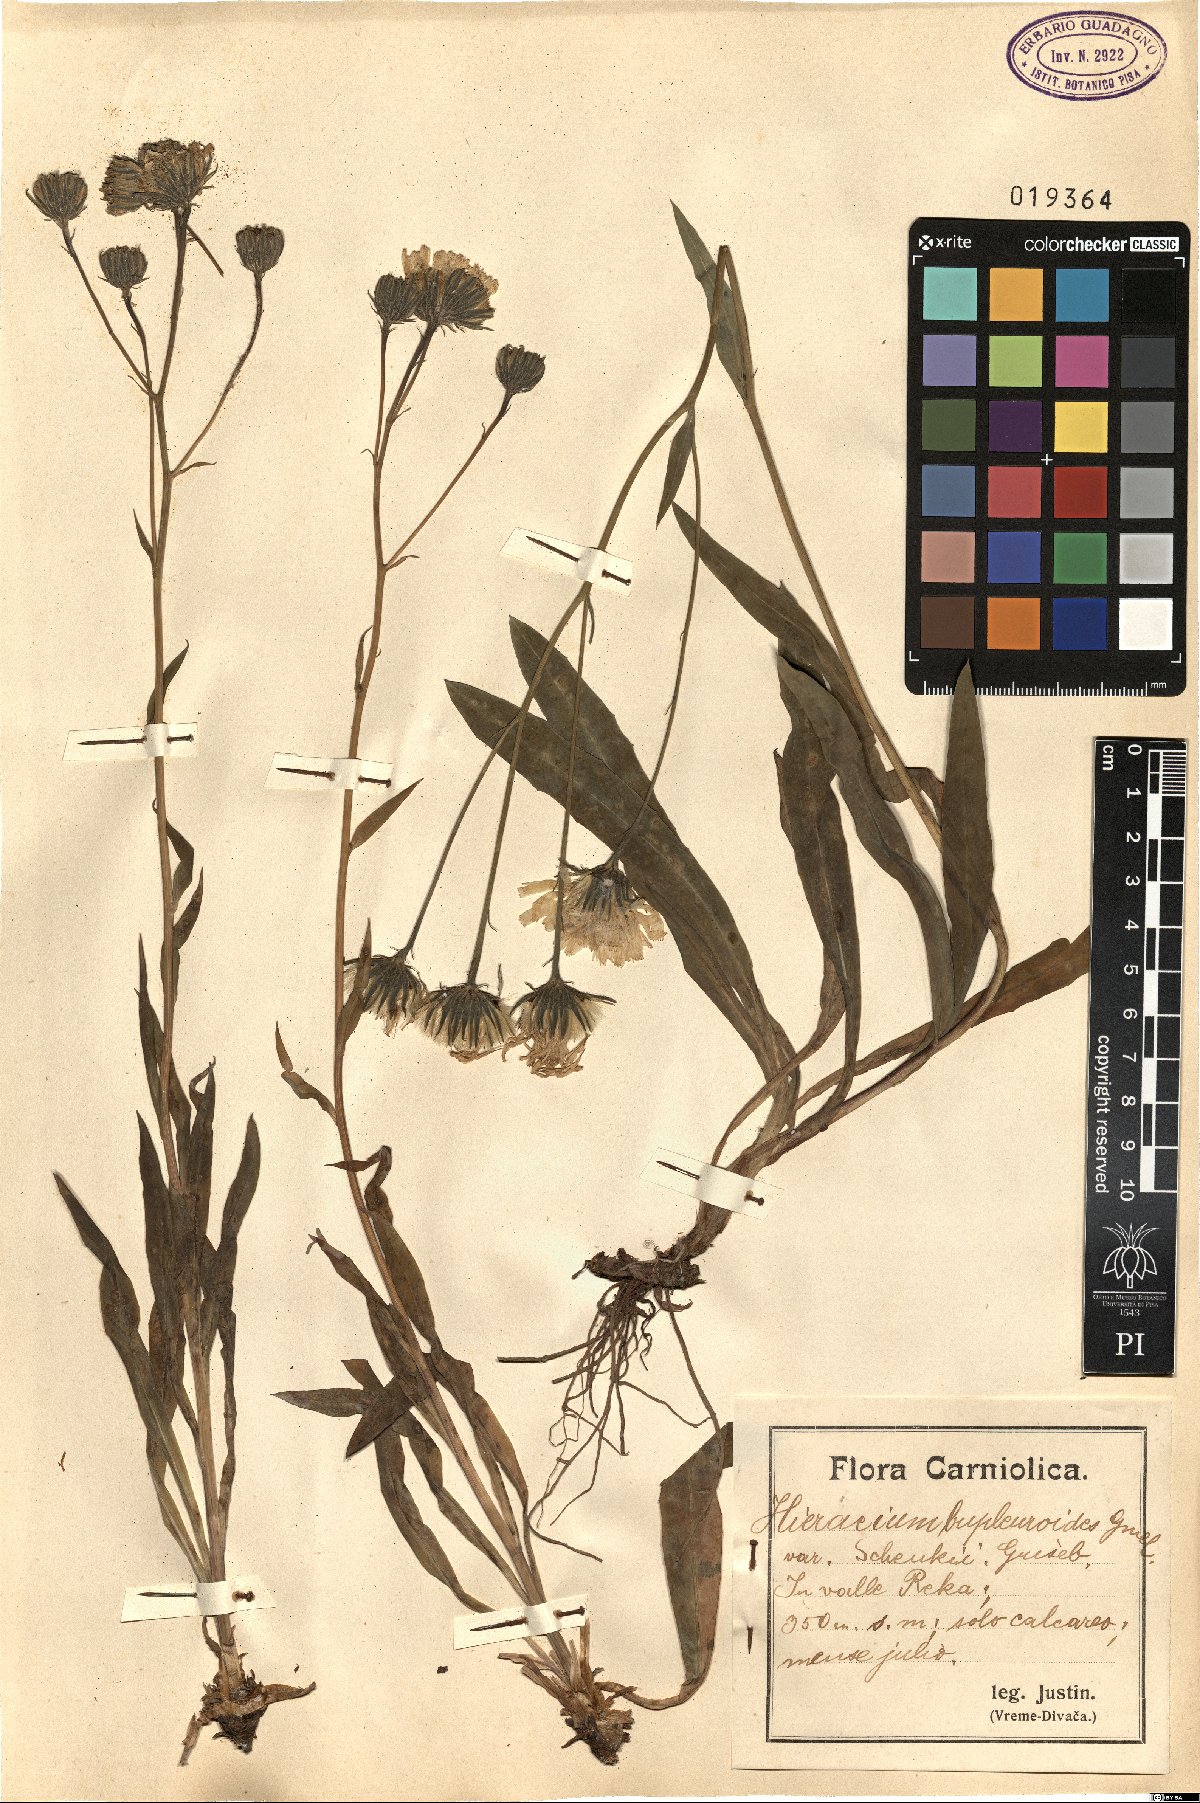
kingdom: Plantae
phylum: Tracheophyta
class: Magnoliopsida
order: Asterales
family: Asteraceae
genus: Hieracium
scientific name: Hieracium bupleuroides
